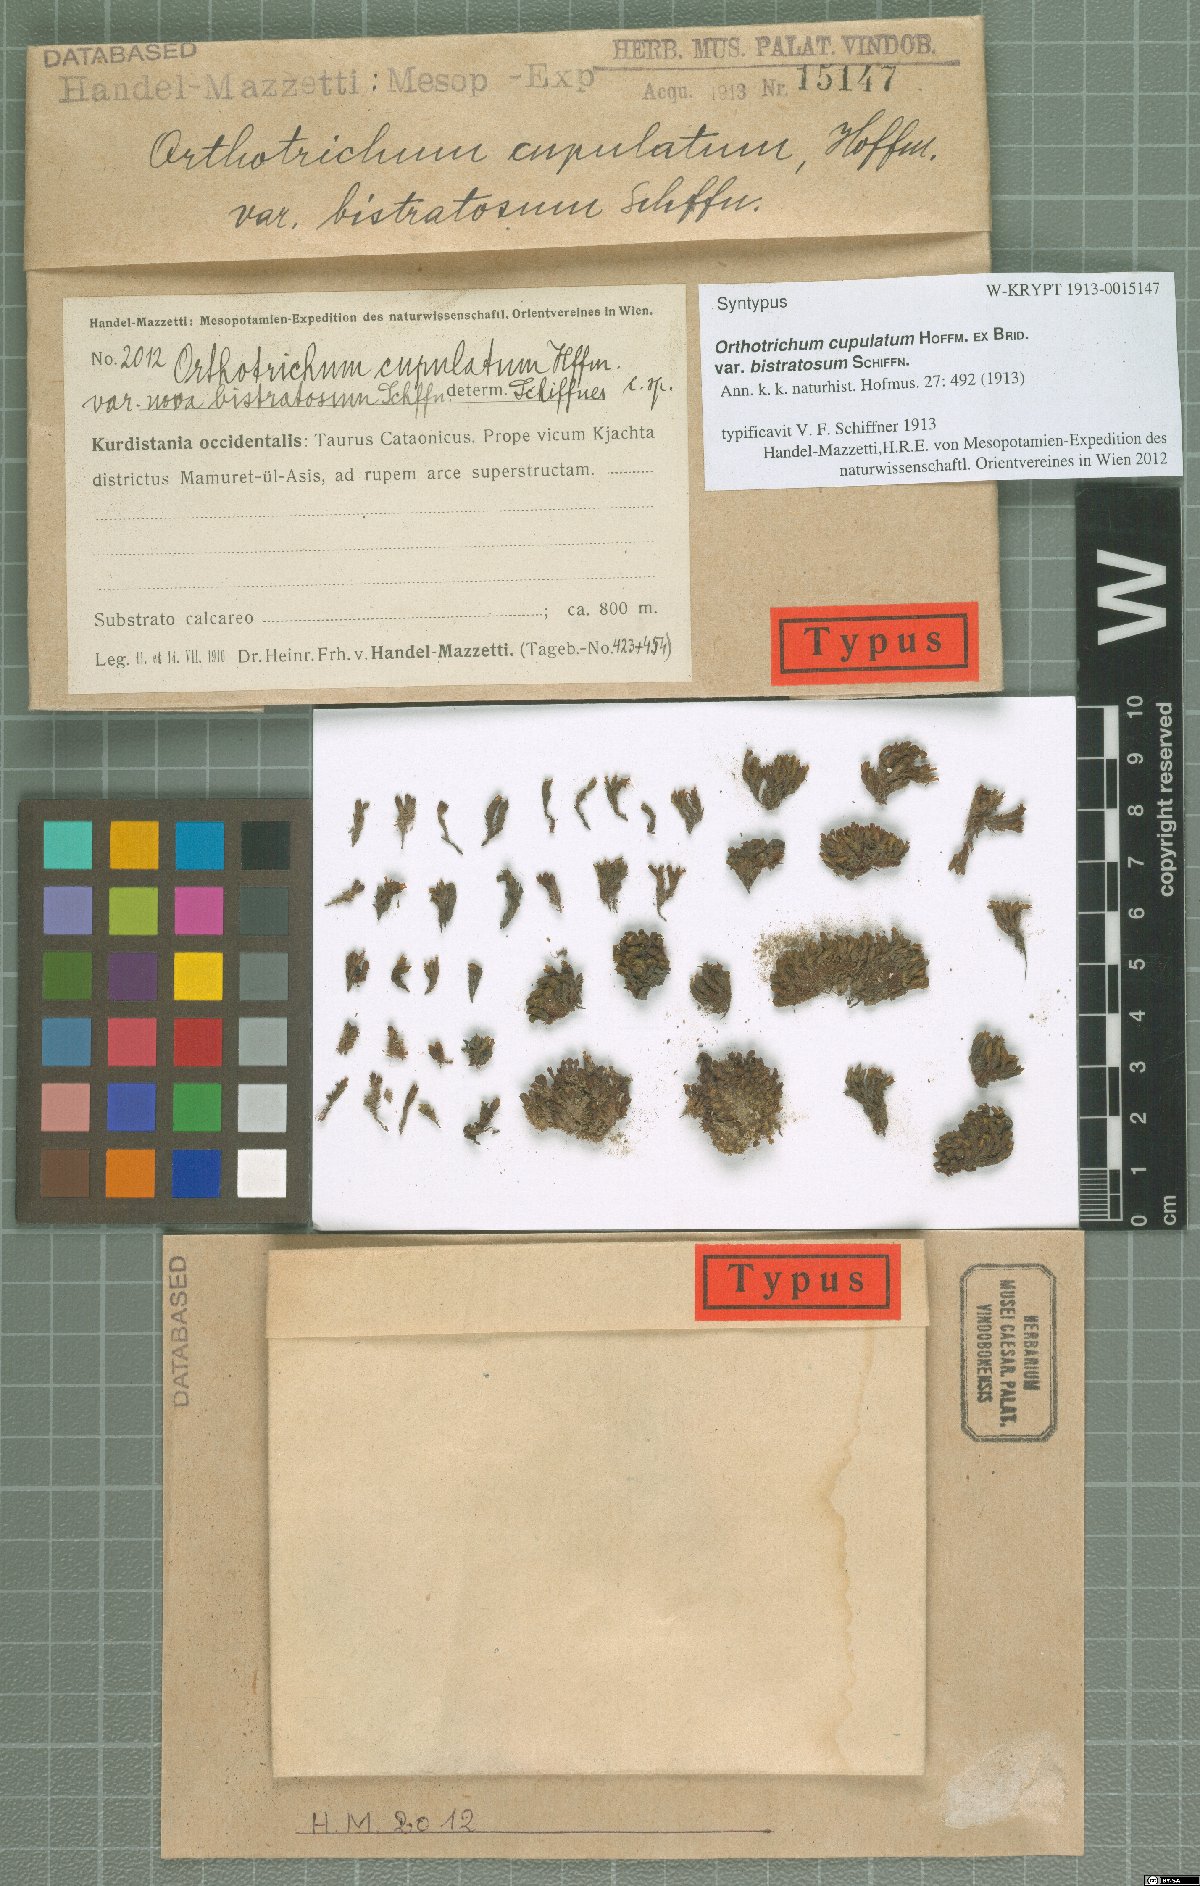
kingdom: Plantae
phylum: Bryophyta
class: Bryopsida
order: Orthotrichales
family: Orthotrichaceae
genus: Orthotrichum
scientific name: Orthotrichum bistratosum
